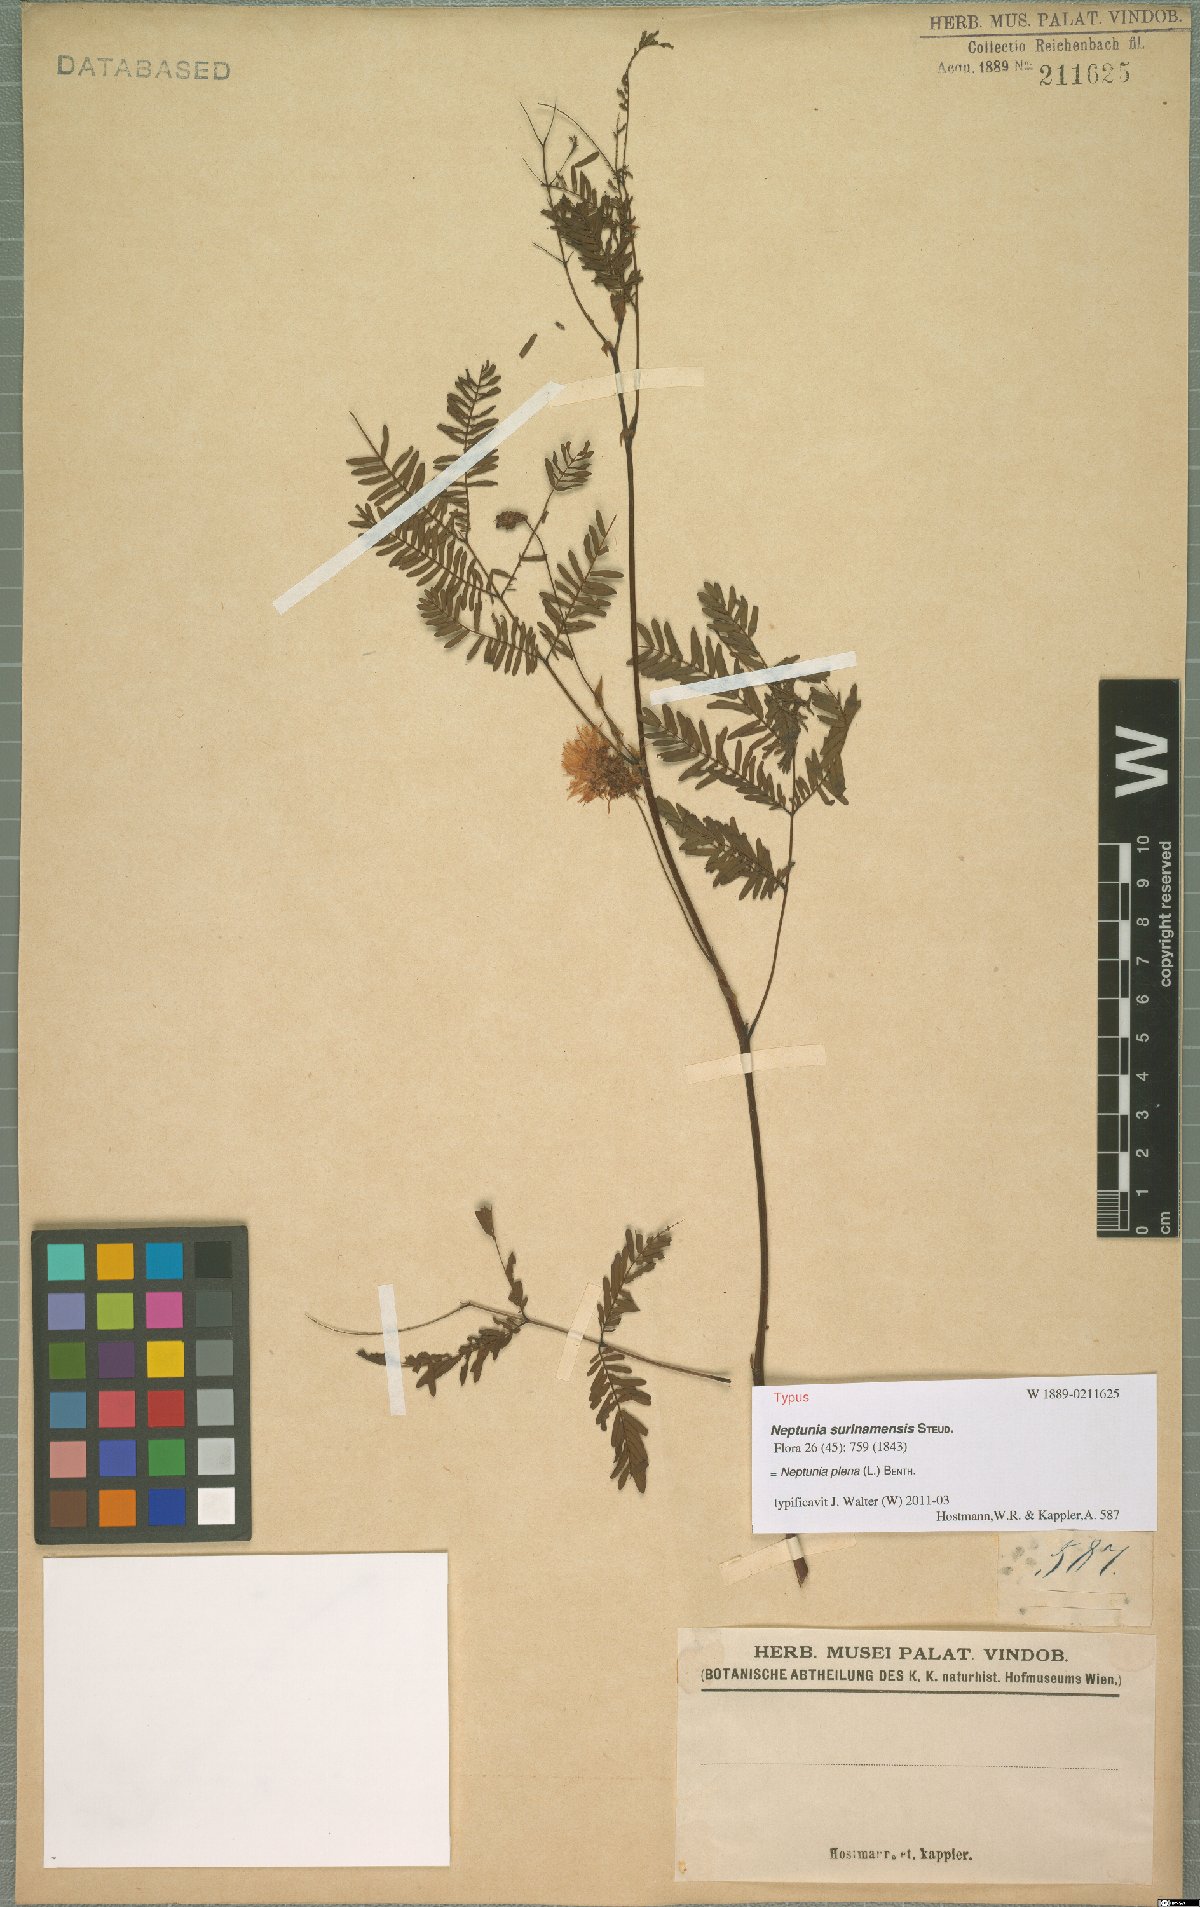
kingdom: Plantae
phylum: Tracheophyta
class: Magnoliopsida
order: Fabales
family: Fabaceae
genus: Neptunia
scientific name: Neptunia plena
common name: Dead and awake
